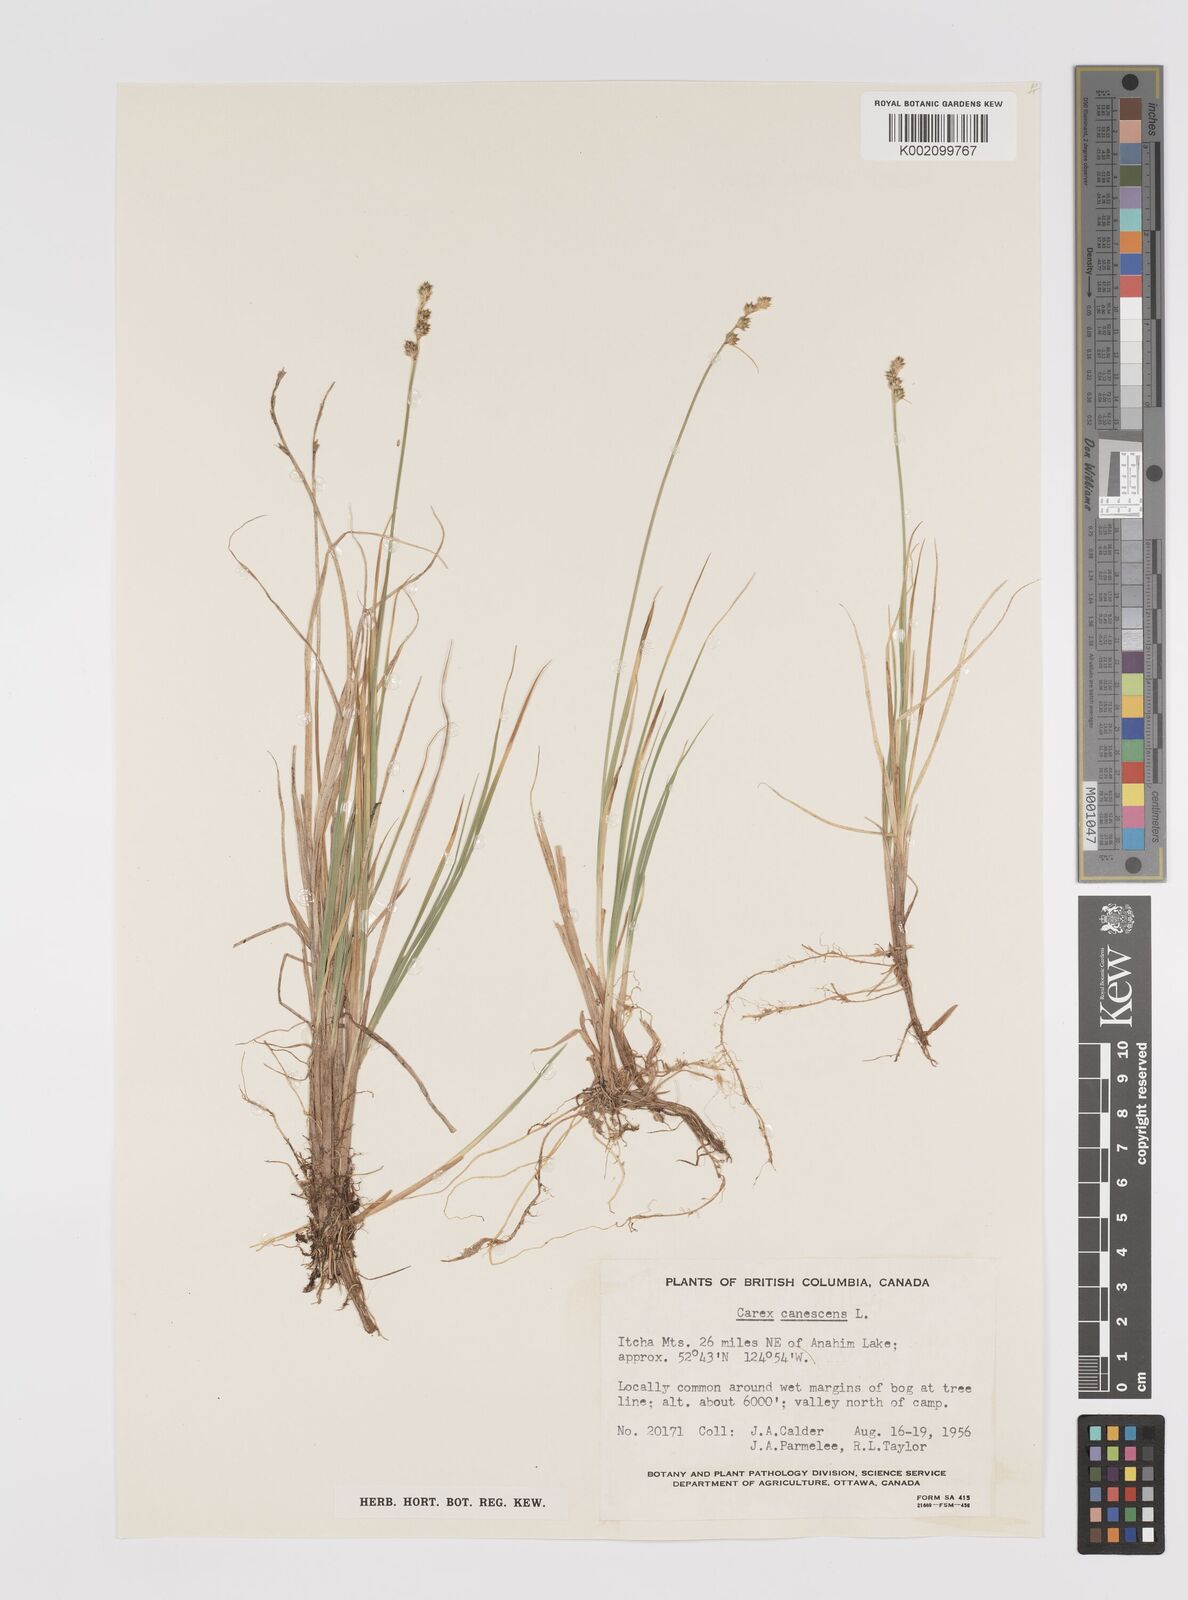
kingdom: Plantae
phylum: Tracheophyta
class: Liliopsida
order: Poales
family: Cyperaceae
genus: Carex
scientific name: Carex curta
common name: White sedge
